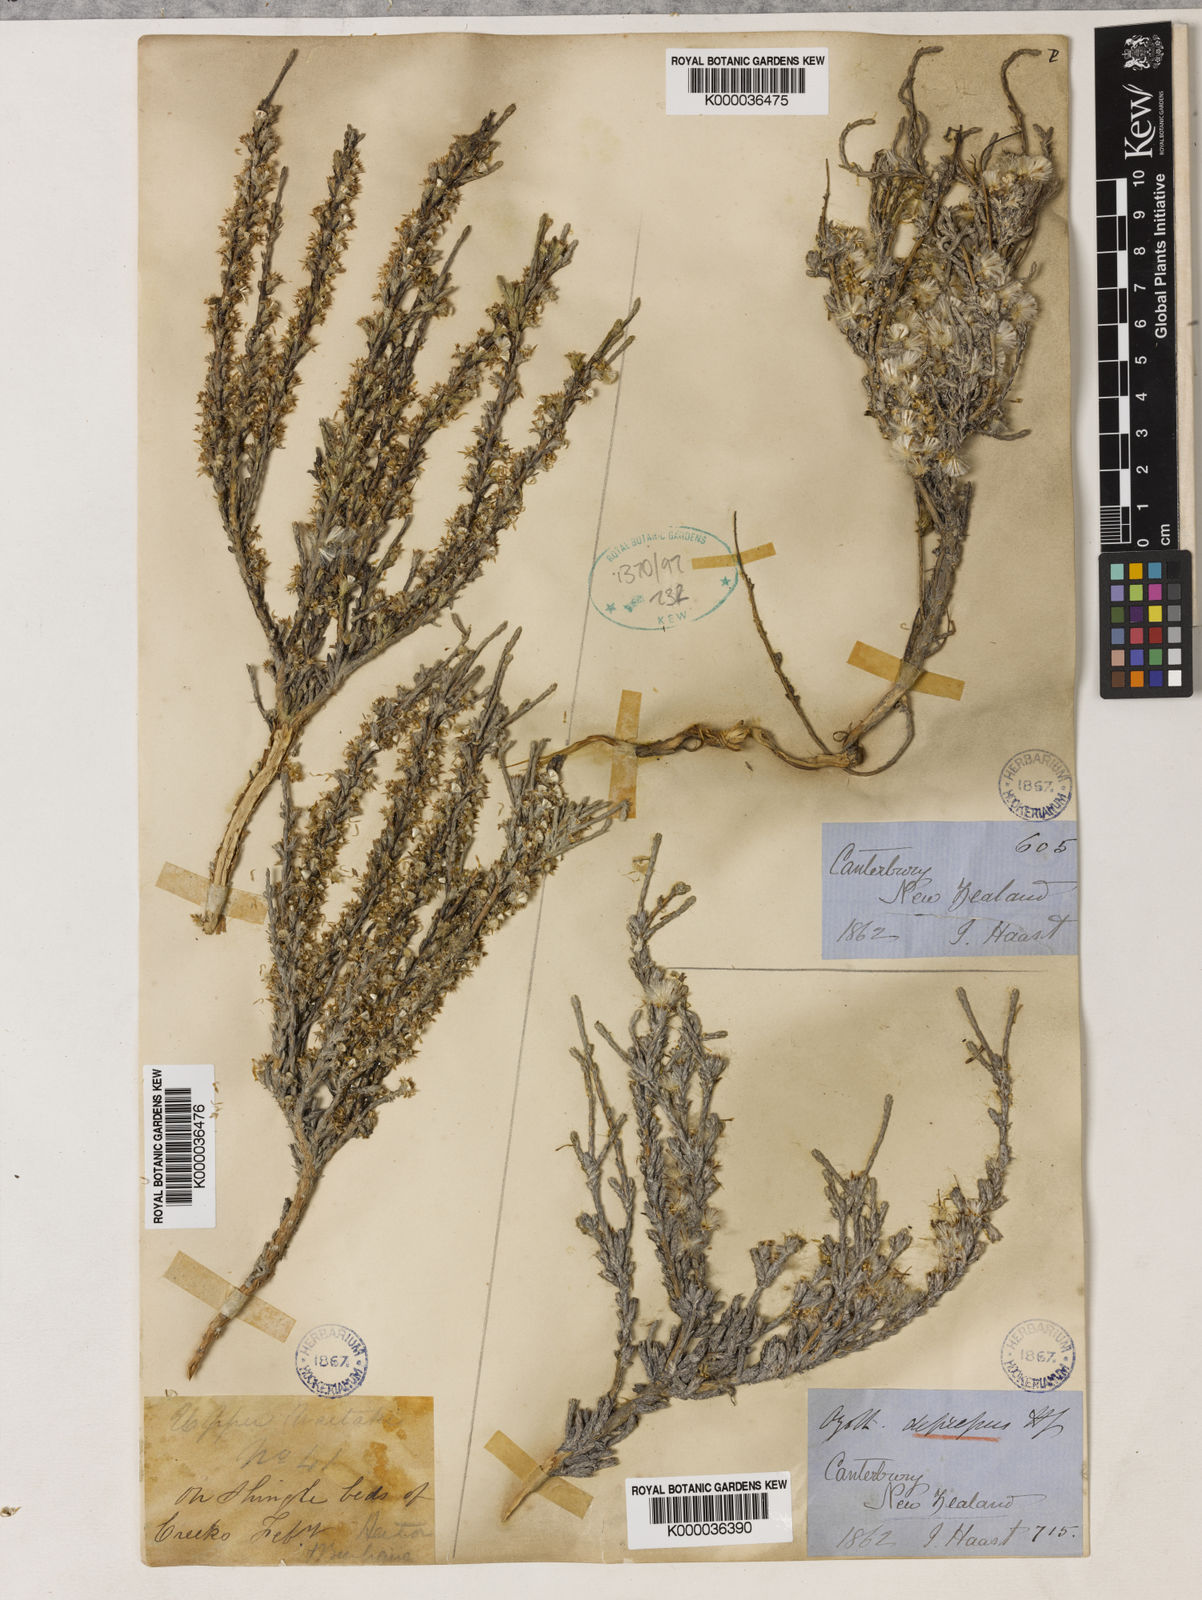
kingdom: Plantae
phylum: Tracheophyta
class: Magnoliopsida
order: Asterales
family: Asteraceae
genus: Ozothamnus
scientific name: Ozothamnus depressus
